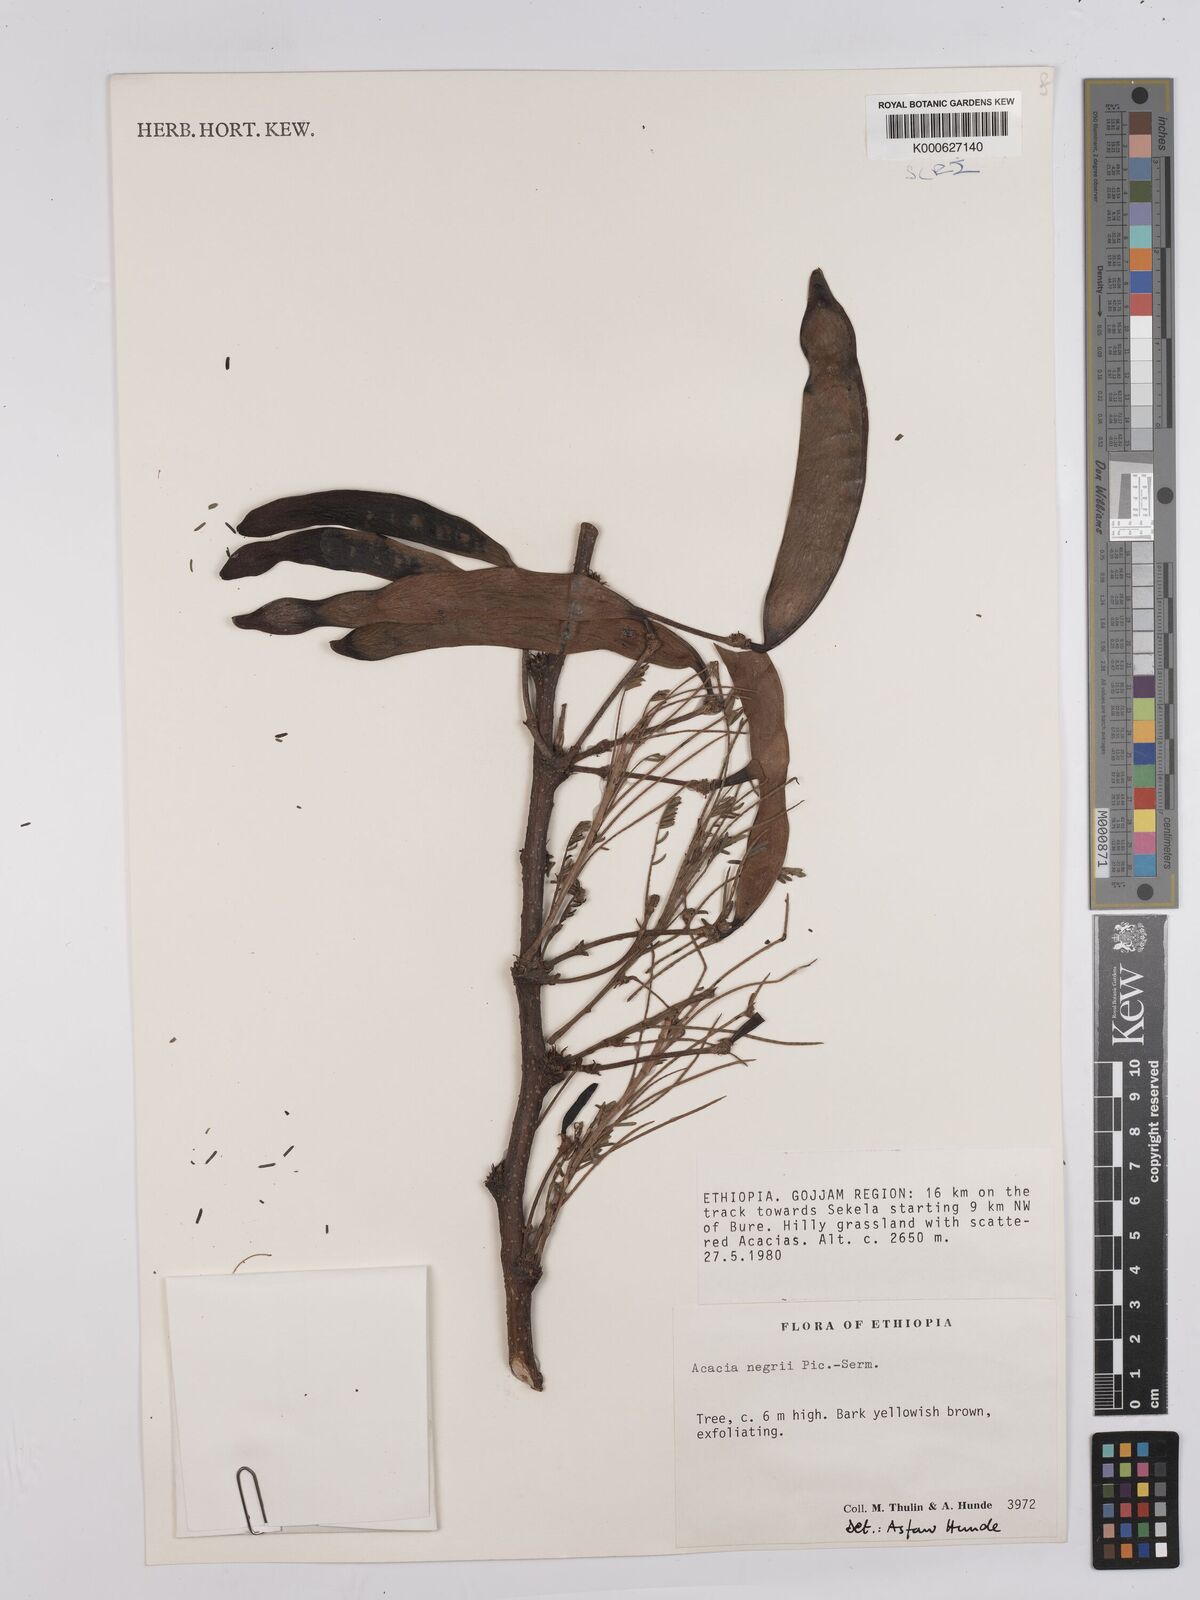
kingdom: Plantae
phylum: Tracheophyta
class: Magnoliopsida
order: Fabales
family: Fabaceae
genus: Vachellia
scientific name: Vachellia negrii
